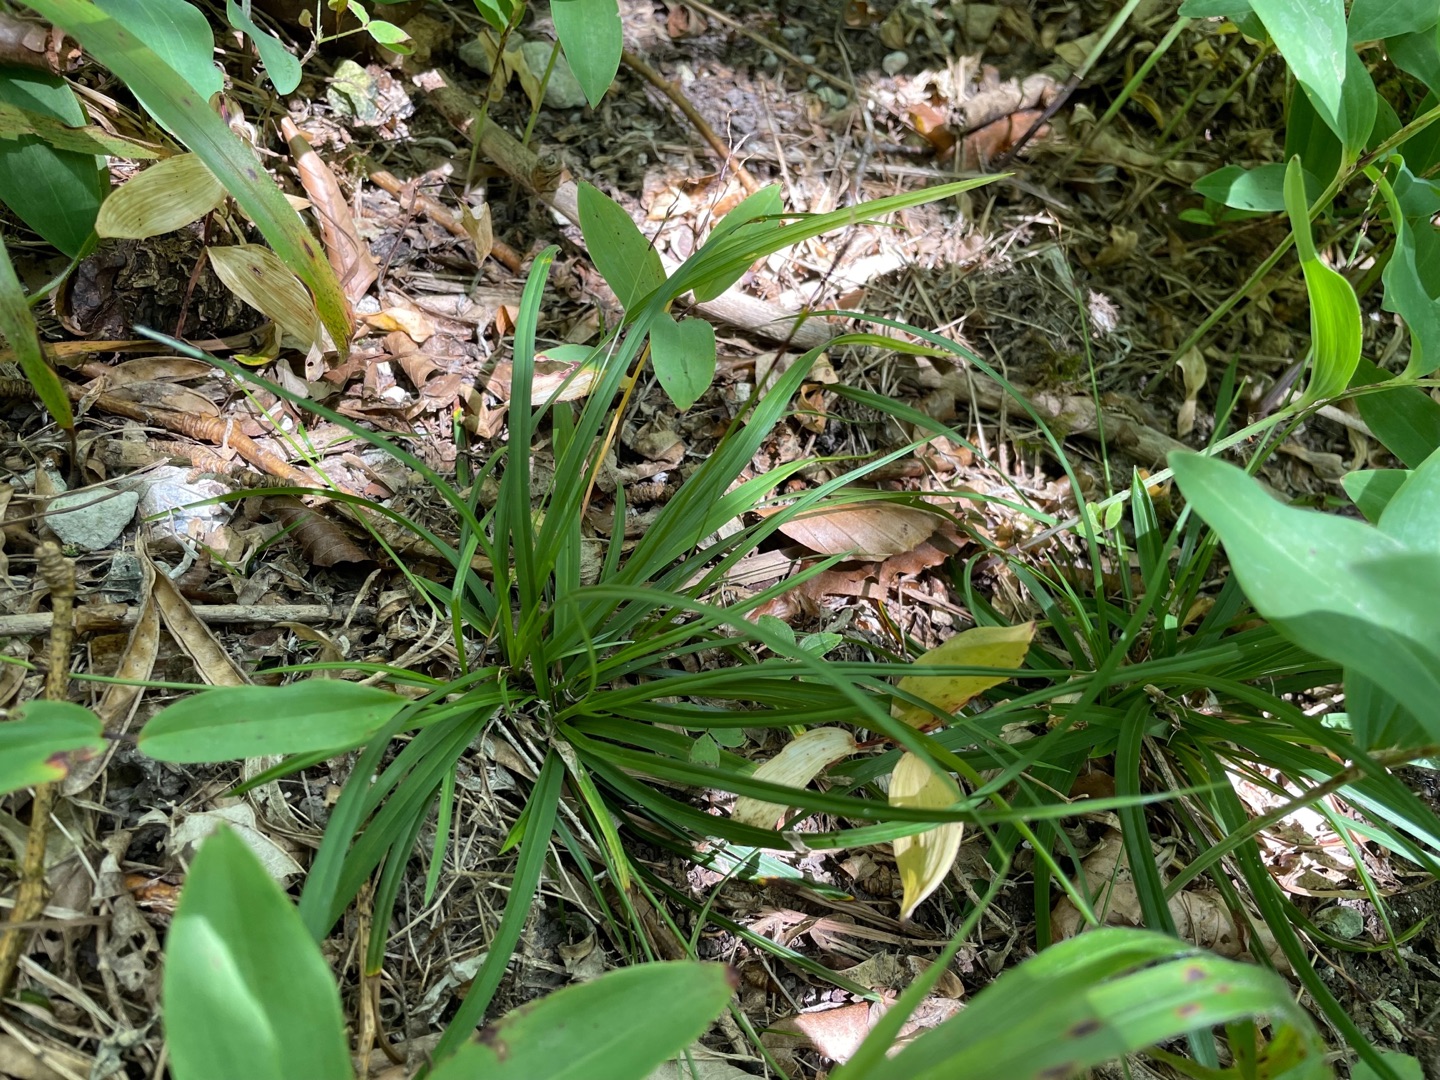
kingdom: Plantae
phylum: Tracheophyta
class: Liliopsida
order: Poales
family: Cyperaceae
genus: Carex
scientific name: Carex digitata
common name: Finger-star
